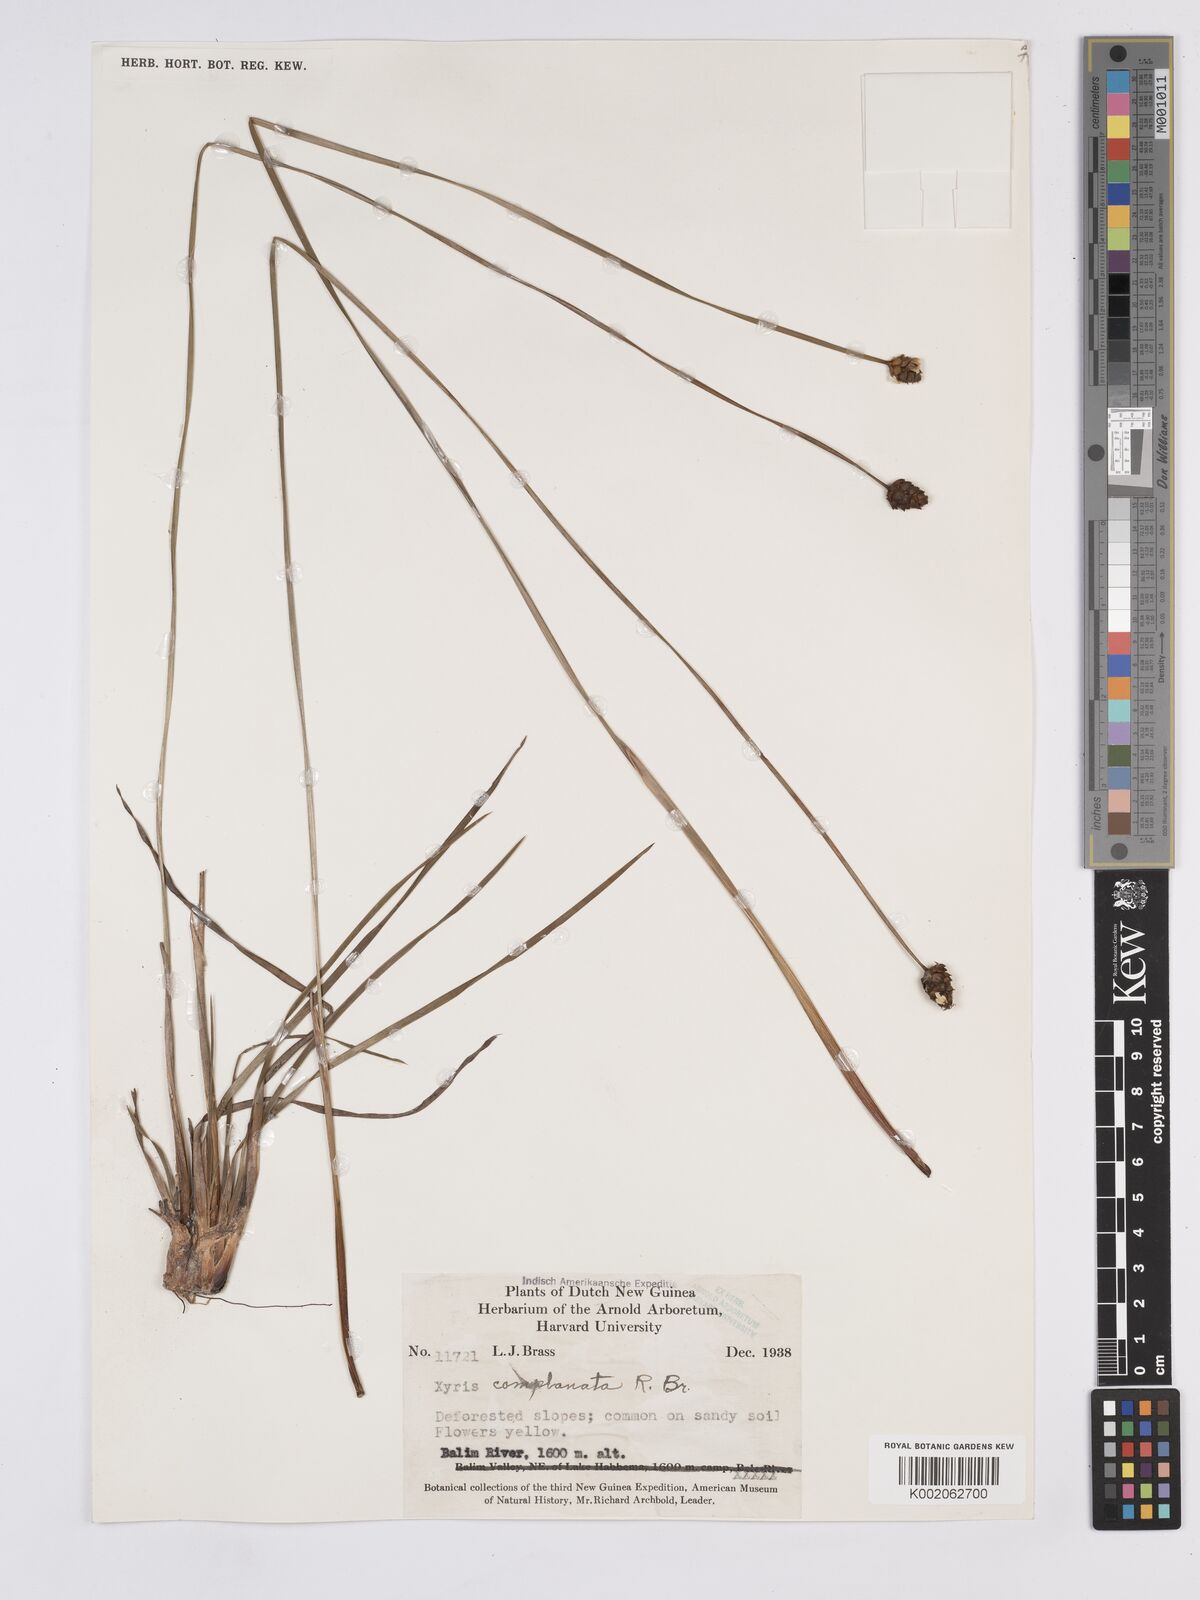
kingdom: Plantae
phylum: Tracheophyta
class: Liliopsida
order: Poales
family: Xyridaceae
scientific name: Xyridaceae
